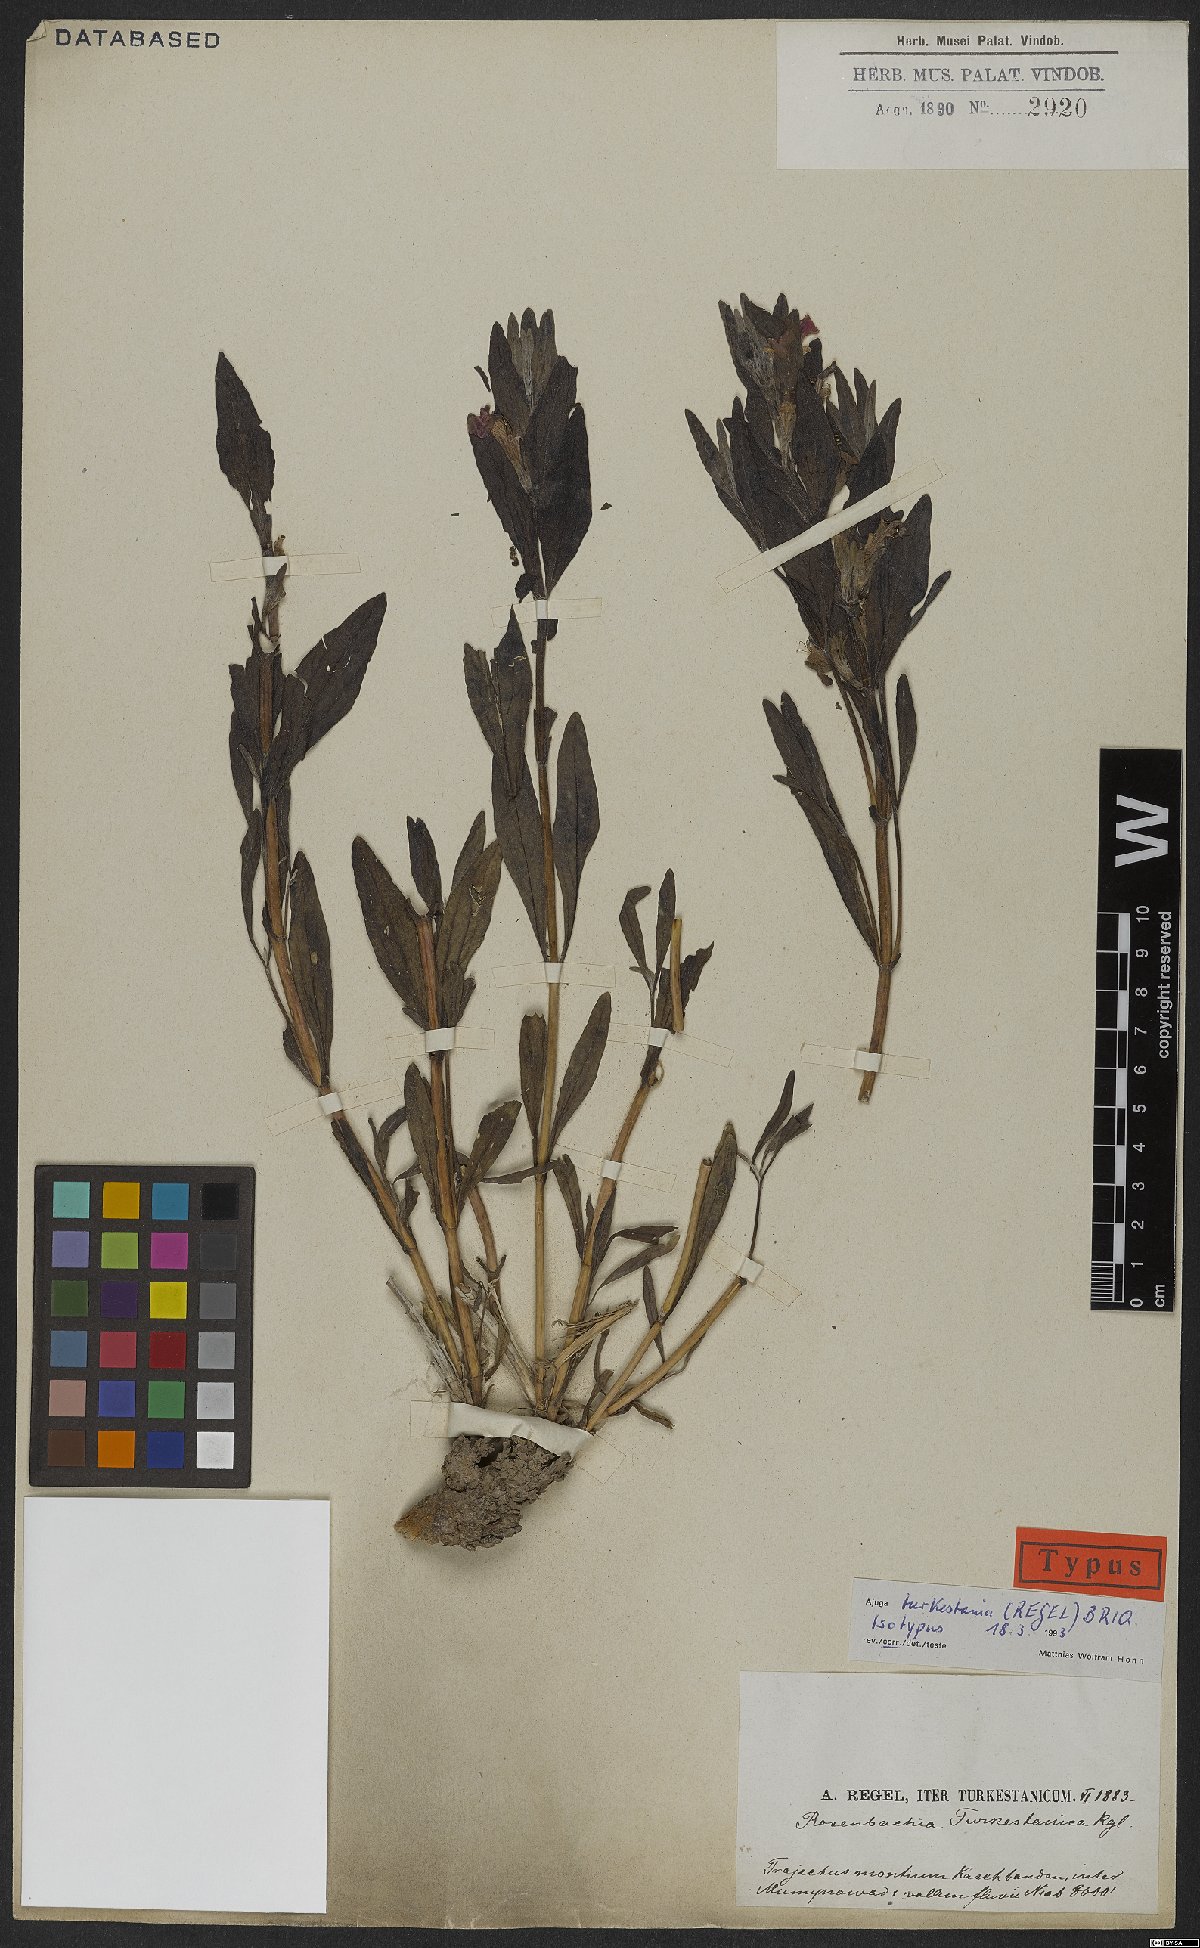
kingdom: Plantae
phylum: Tracheophyta
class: Magnoliopsida
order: Lamiales
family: Lamiaceae
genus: Ajuga
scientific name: Ajuga turkestanica
